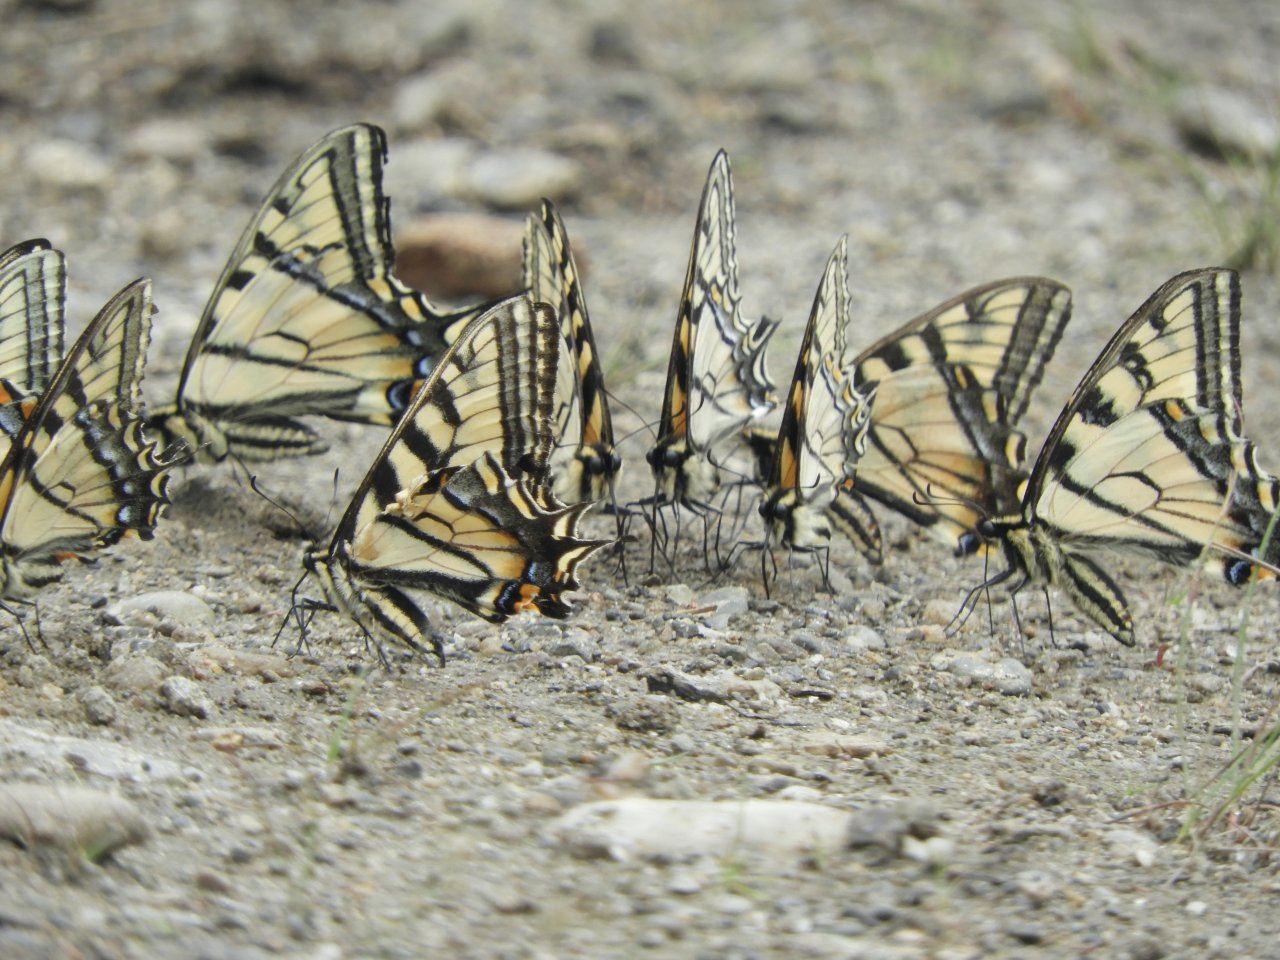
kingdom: Animalia
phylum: Arthropoda
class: Insecta
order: Lepidoptera
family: Papilionidae
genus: Pterourus
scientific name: Pterourus canadensis
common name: Canadian Tiger Swallowtail
